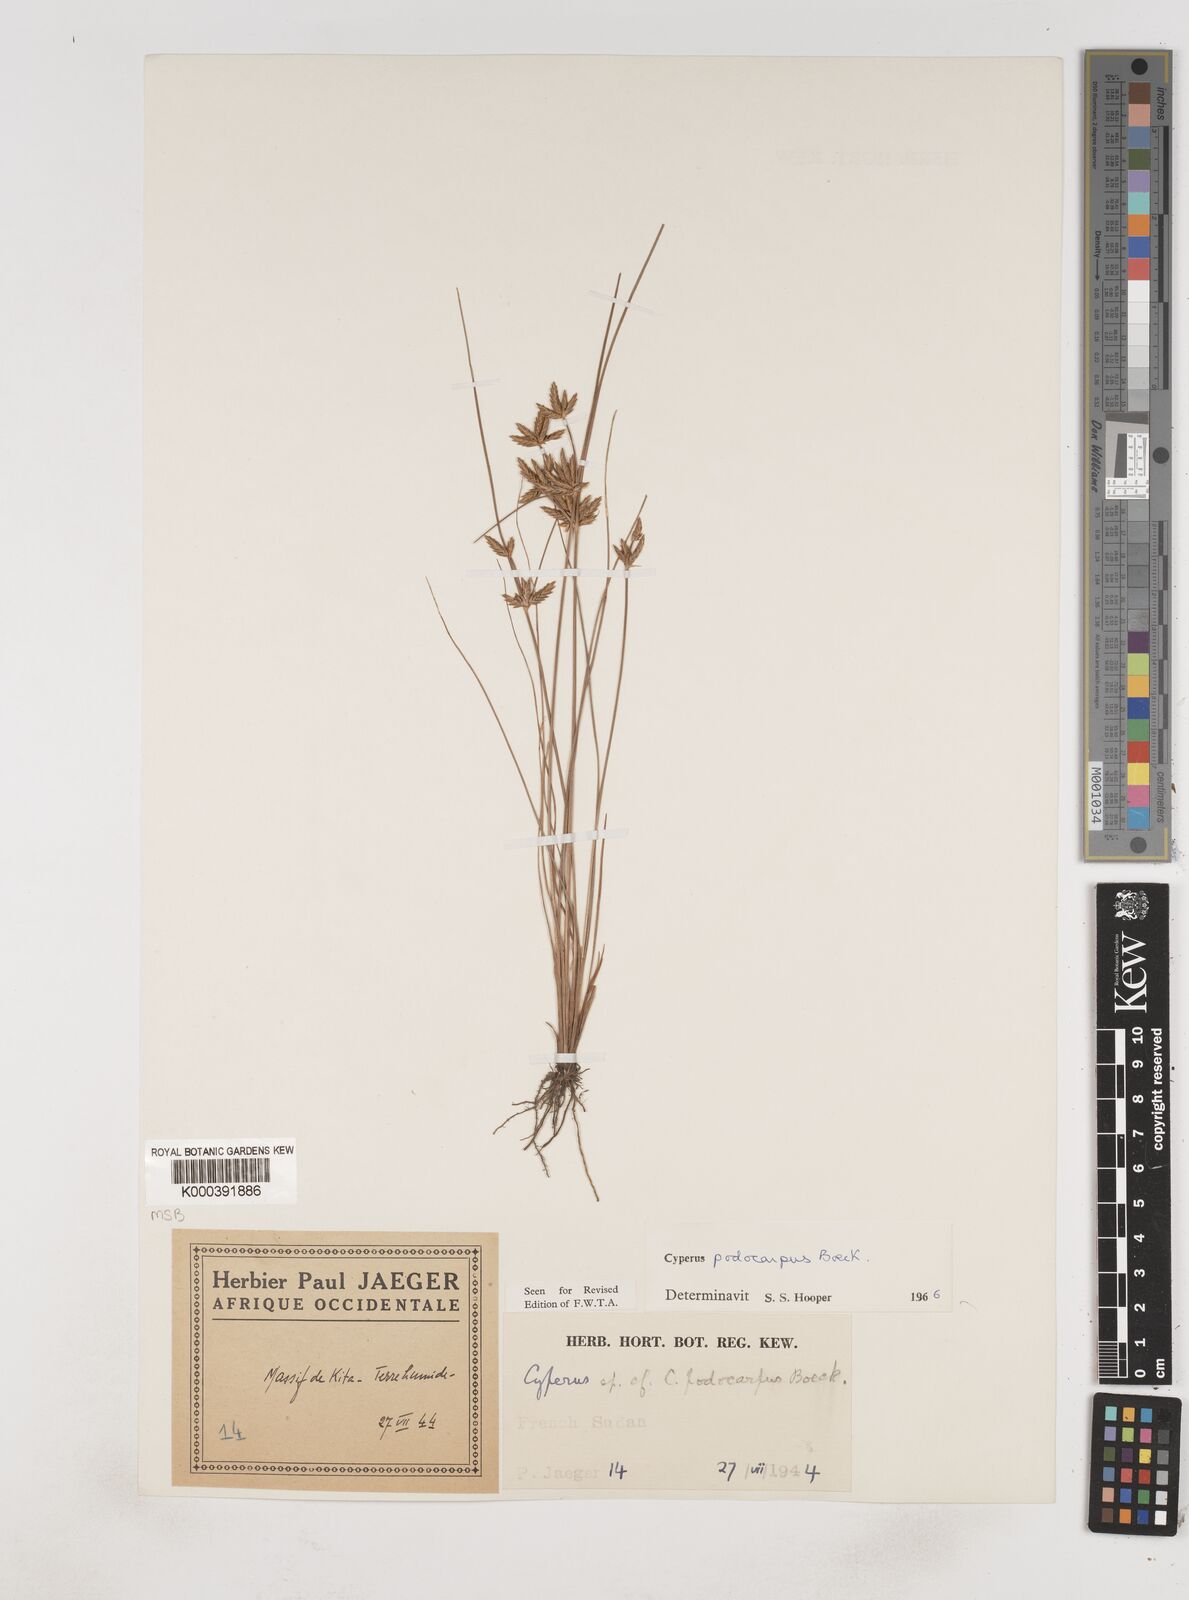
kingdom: Plantae
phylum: Tracheophyta
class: Liliopsida
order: Poales
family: Cyperaceae
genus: Cyperus
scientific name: Cyperus podocarpus
